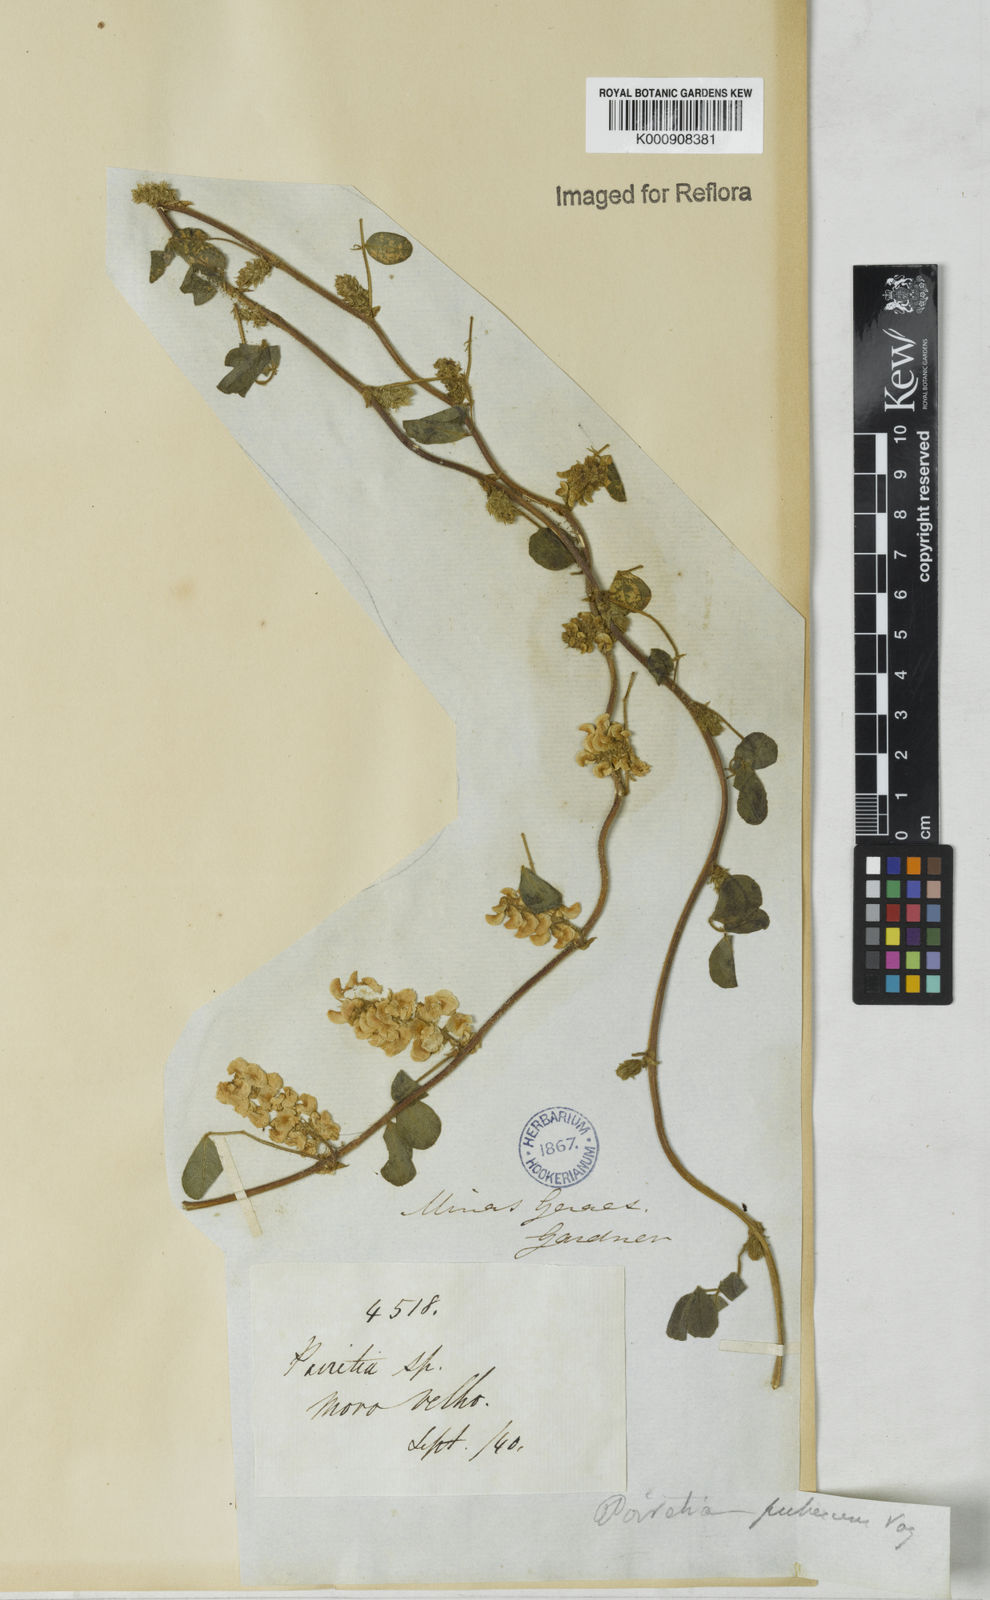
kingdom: Plantae
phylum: Tracheophyta
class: Magnoliopsida
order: Fabales
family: Fabaceae
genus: Poiretia
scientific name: Poiretia punctata
